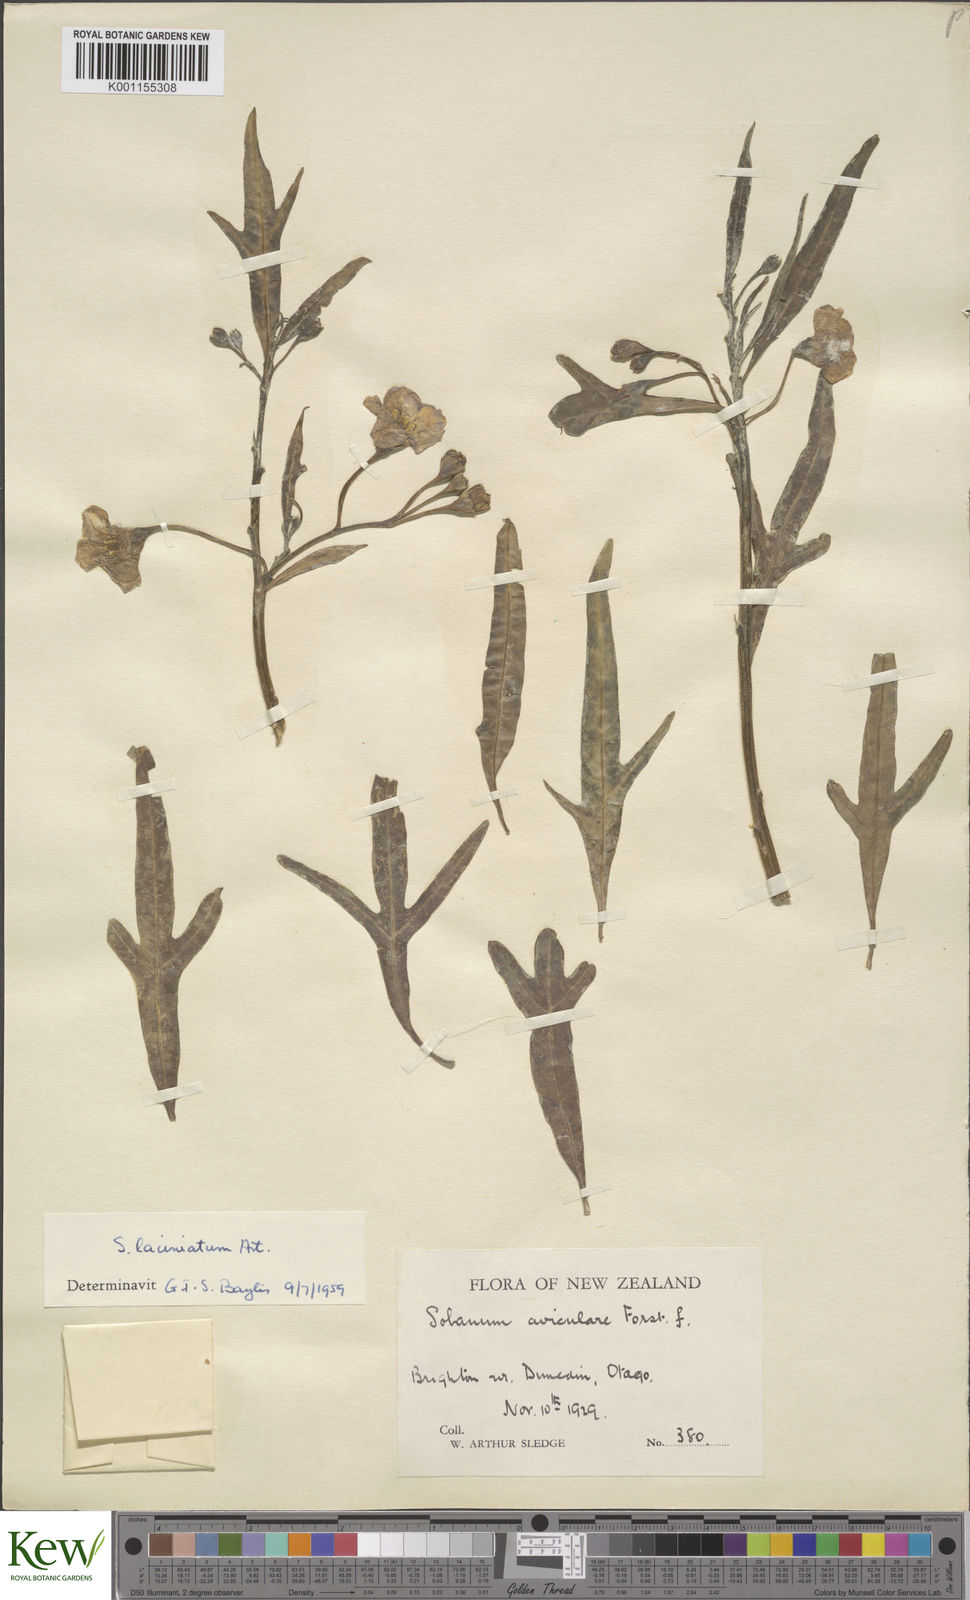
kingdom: Plantae
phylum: Tracheophyta
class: Magnoliopsida
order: Solanales
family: Solanaceae
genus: Solanum
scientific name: Solanum laciniatum
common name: Kangaroo-apple
